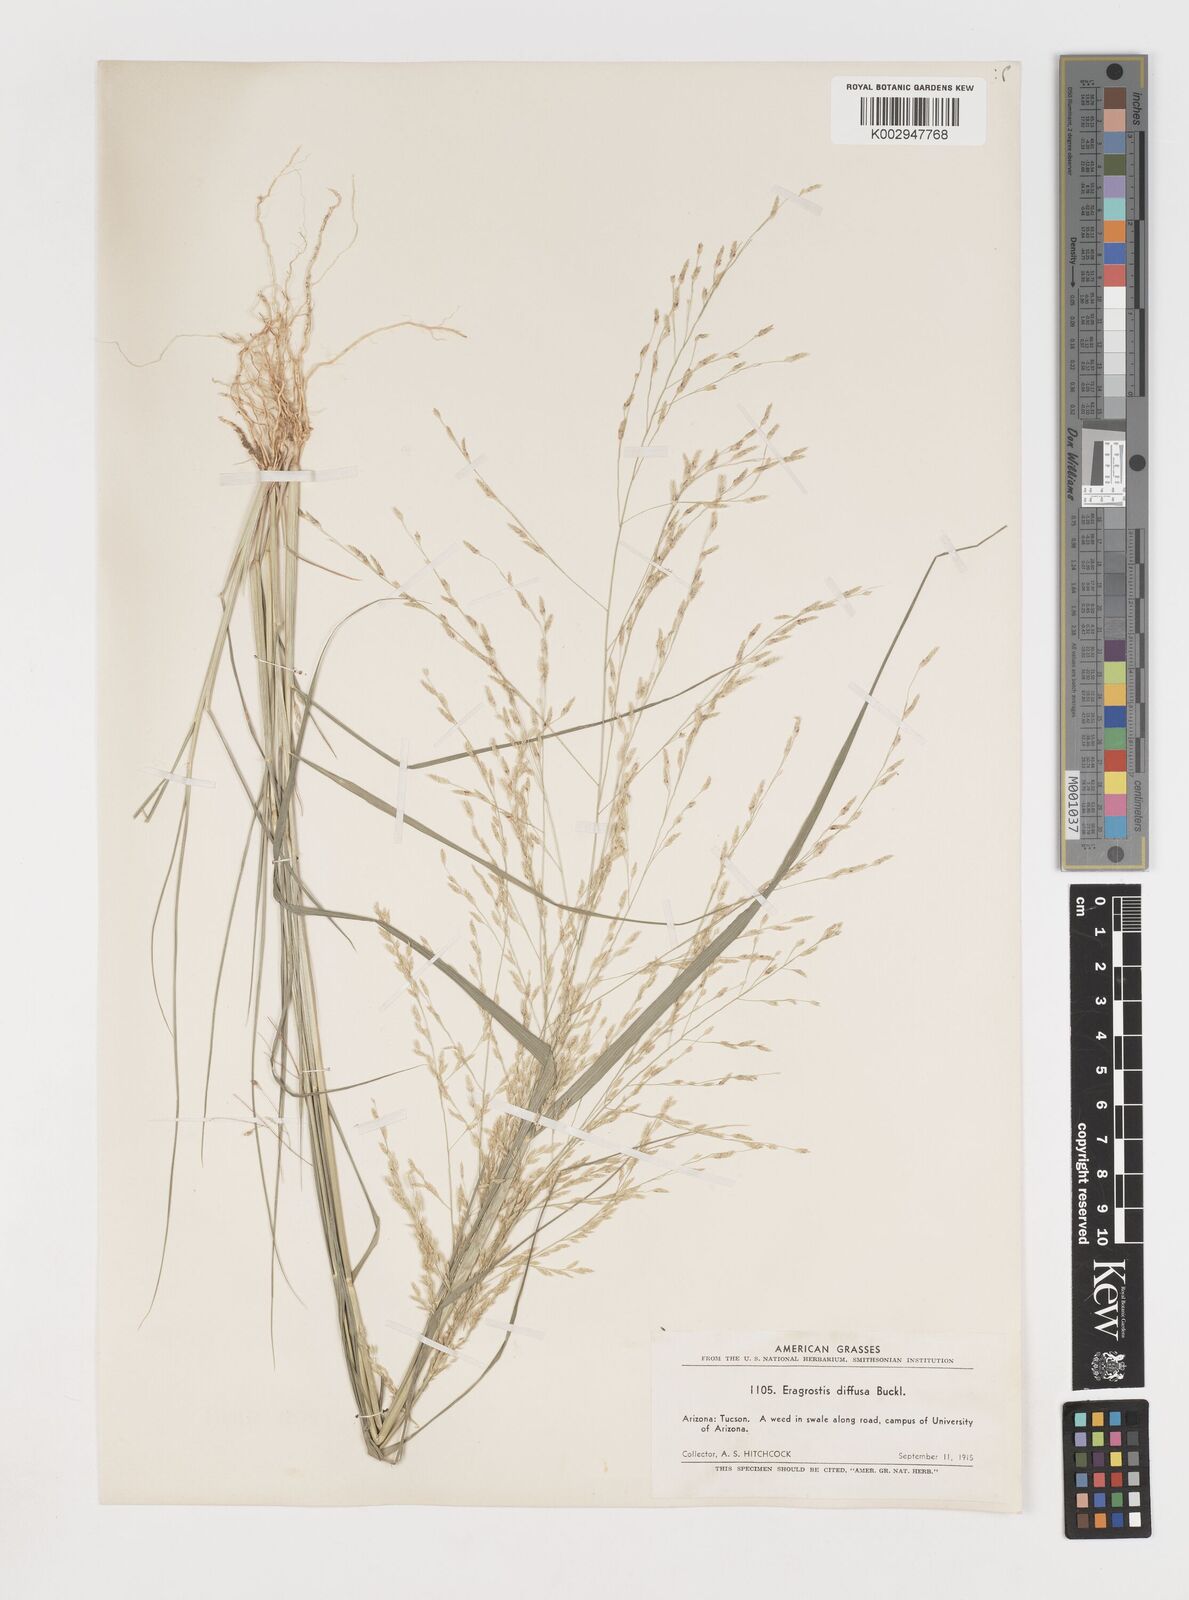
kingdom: Plantae
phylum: Tracheophyta
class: Liliopsida
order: Poales
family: Poaceae
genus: Eragrostis
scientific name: Eragrostis pectinacea
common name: Tufted lovegrass
